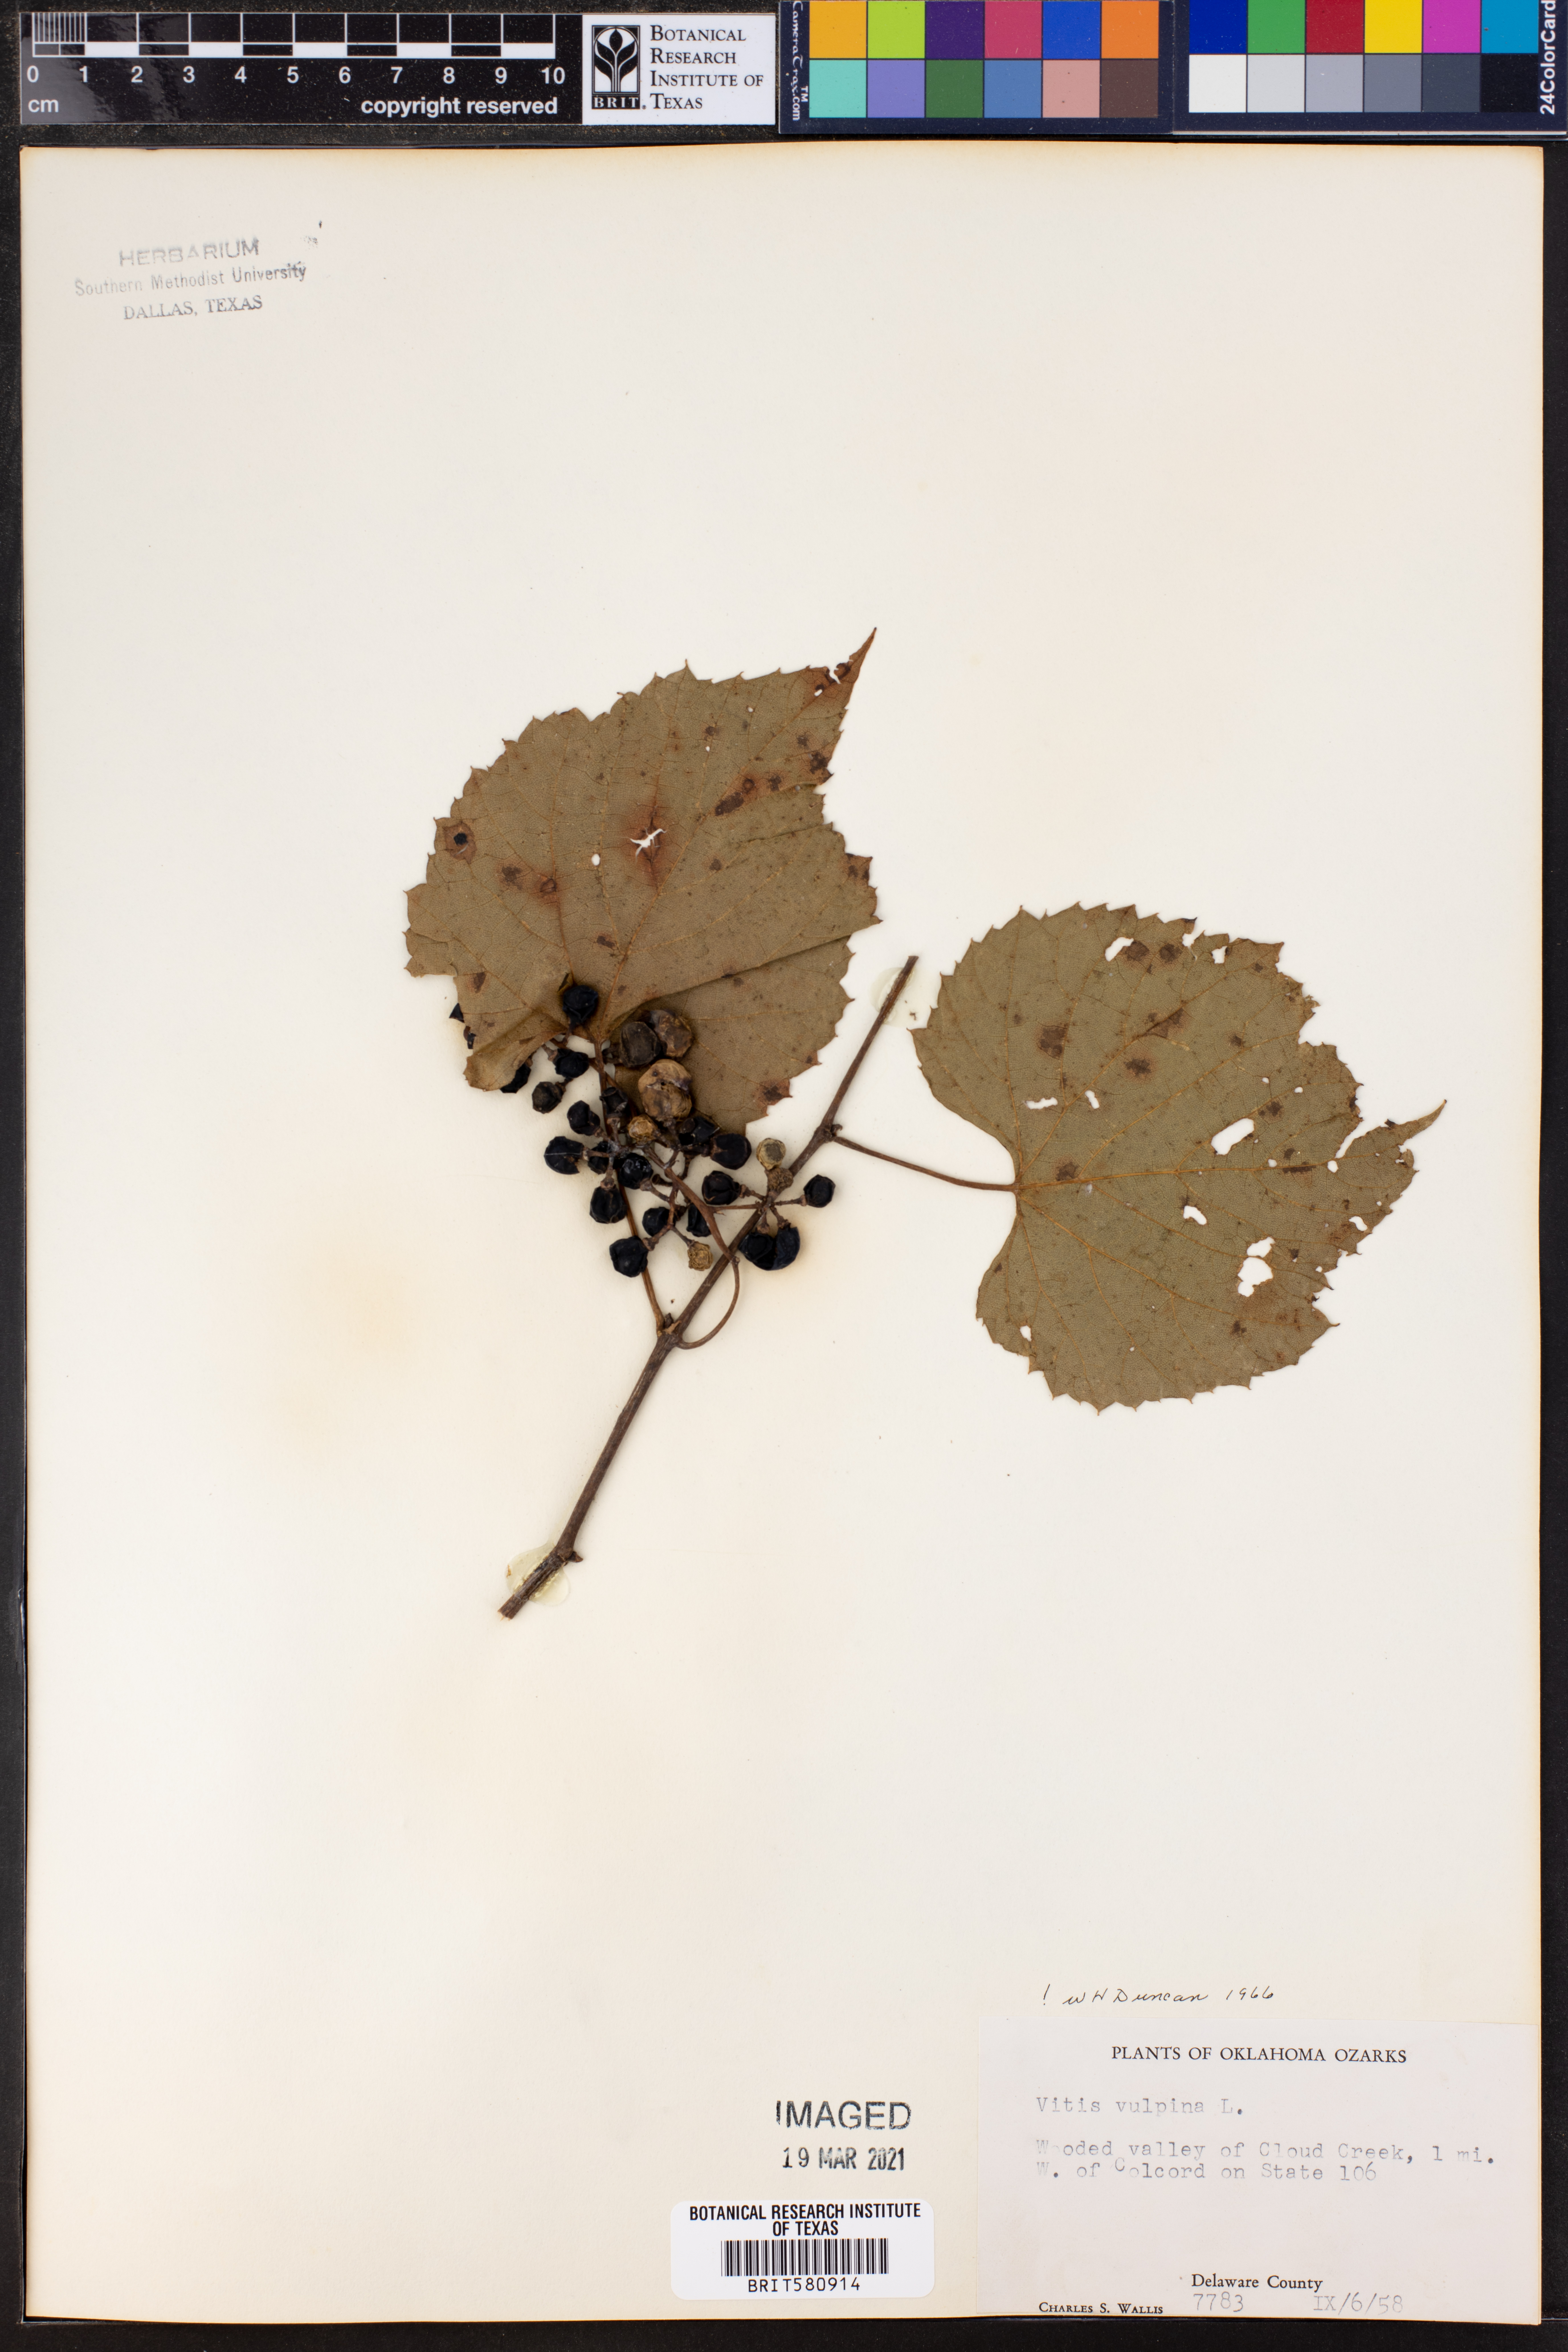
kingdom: Plantae
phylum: Tracheophyta
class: Magnoliopsida
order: Vitales
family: Vitaceae
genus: Vitis
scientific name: Vitis vulpina
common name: Frost grape
